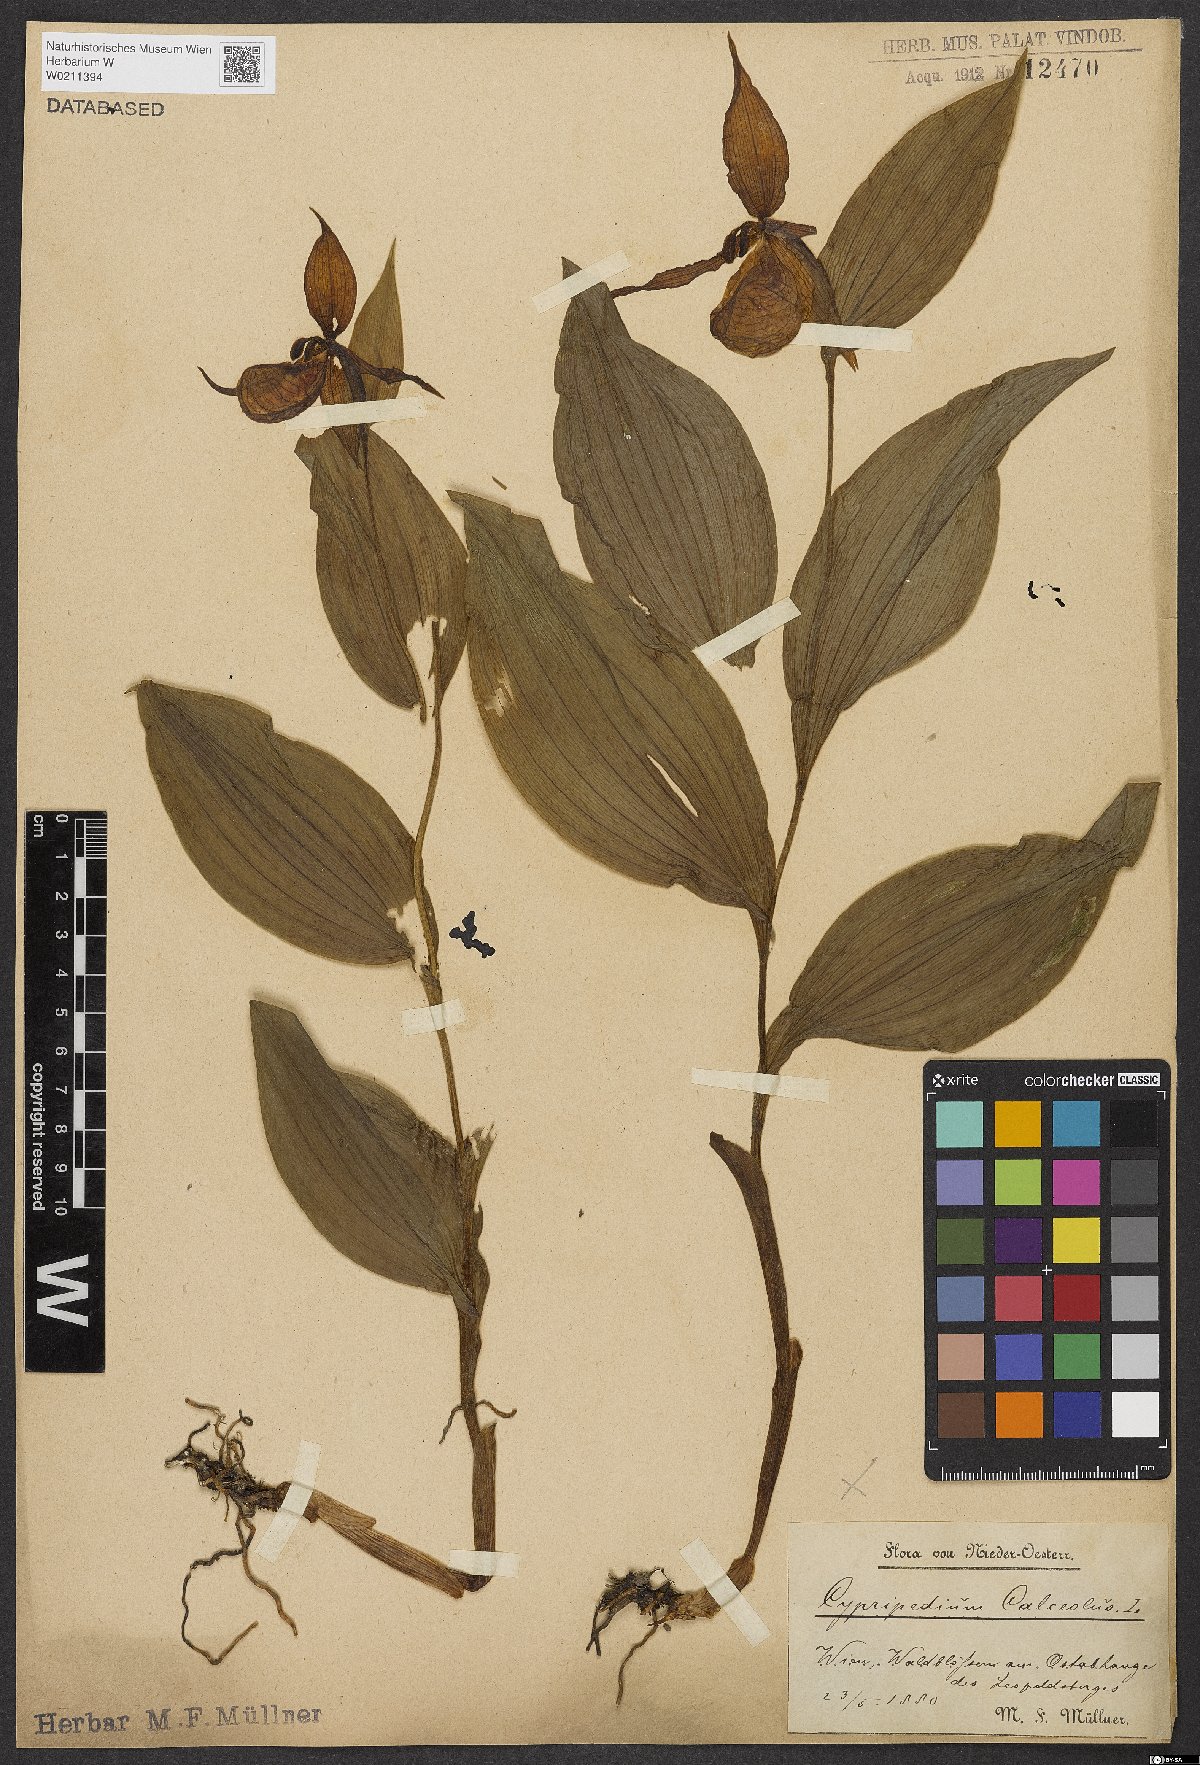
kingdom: Plantae
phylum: Tracheophyta
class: Liliopsida
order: Asparagales
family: Orchidaceae
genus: Cypripedium
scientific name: Cypripedium calceolus
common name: Lady's-slipper
